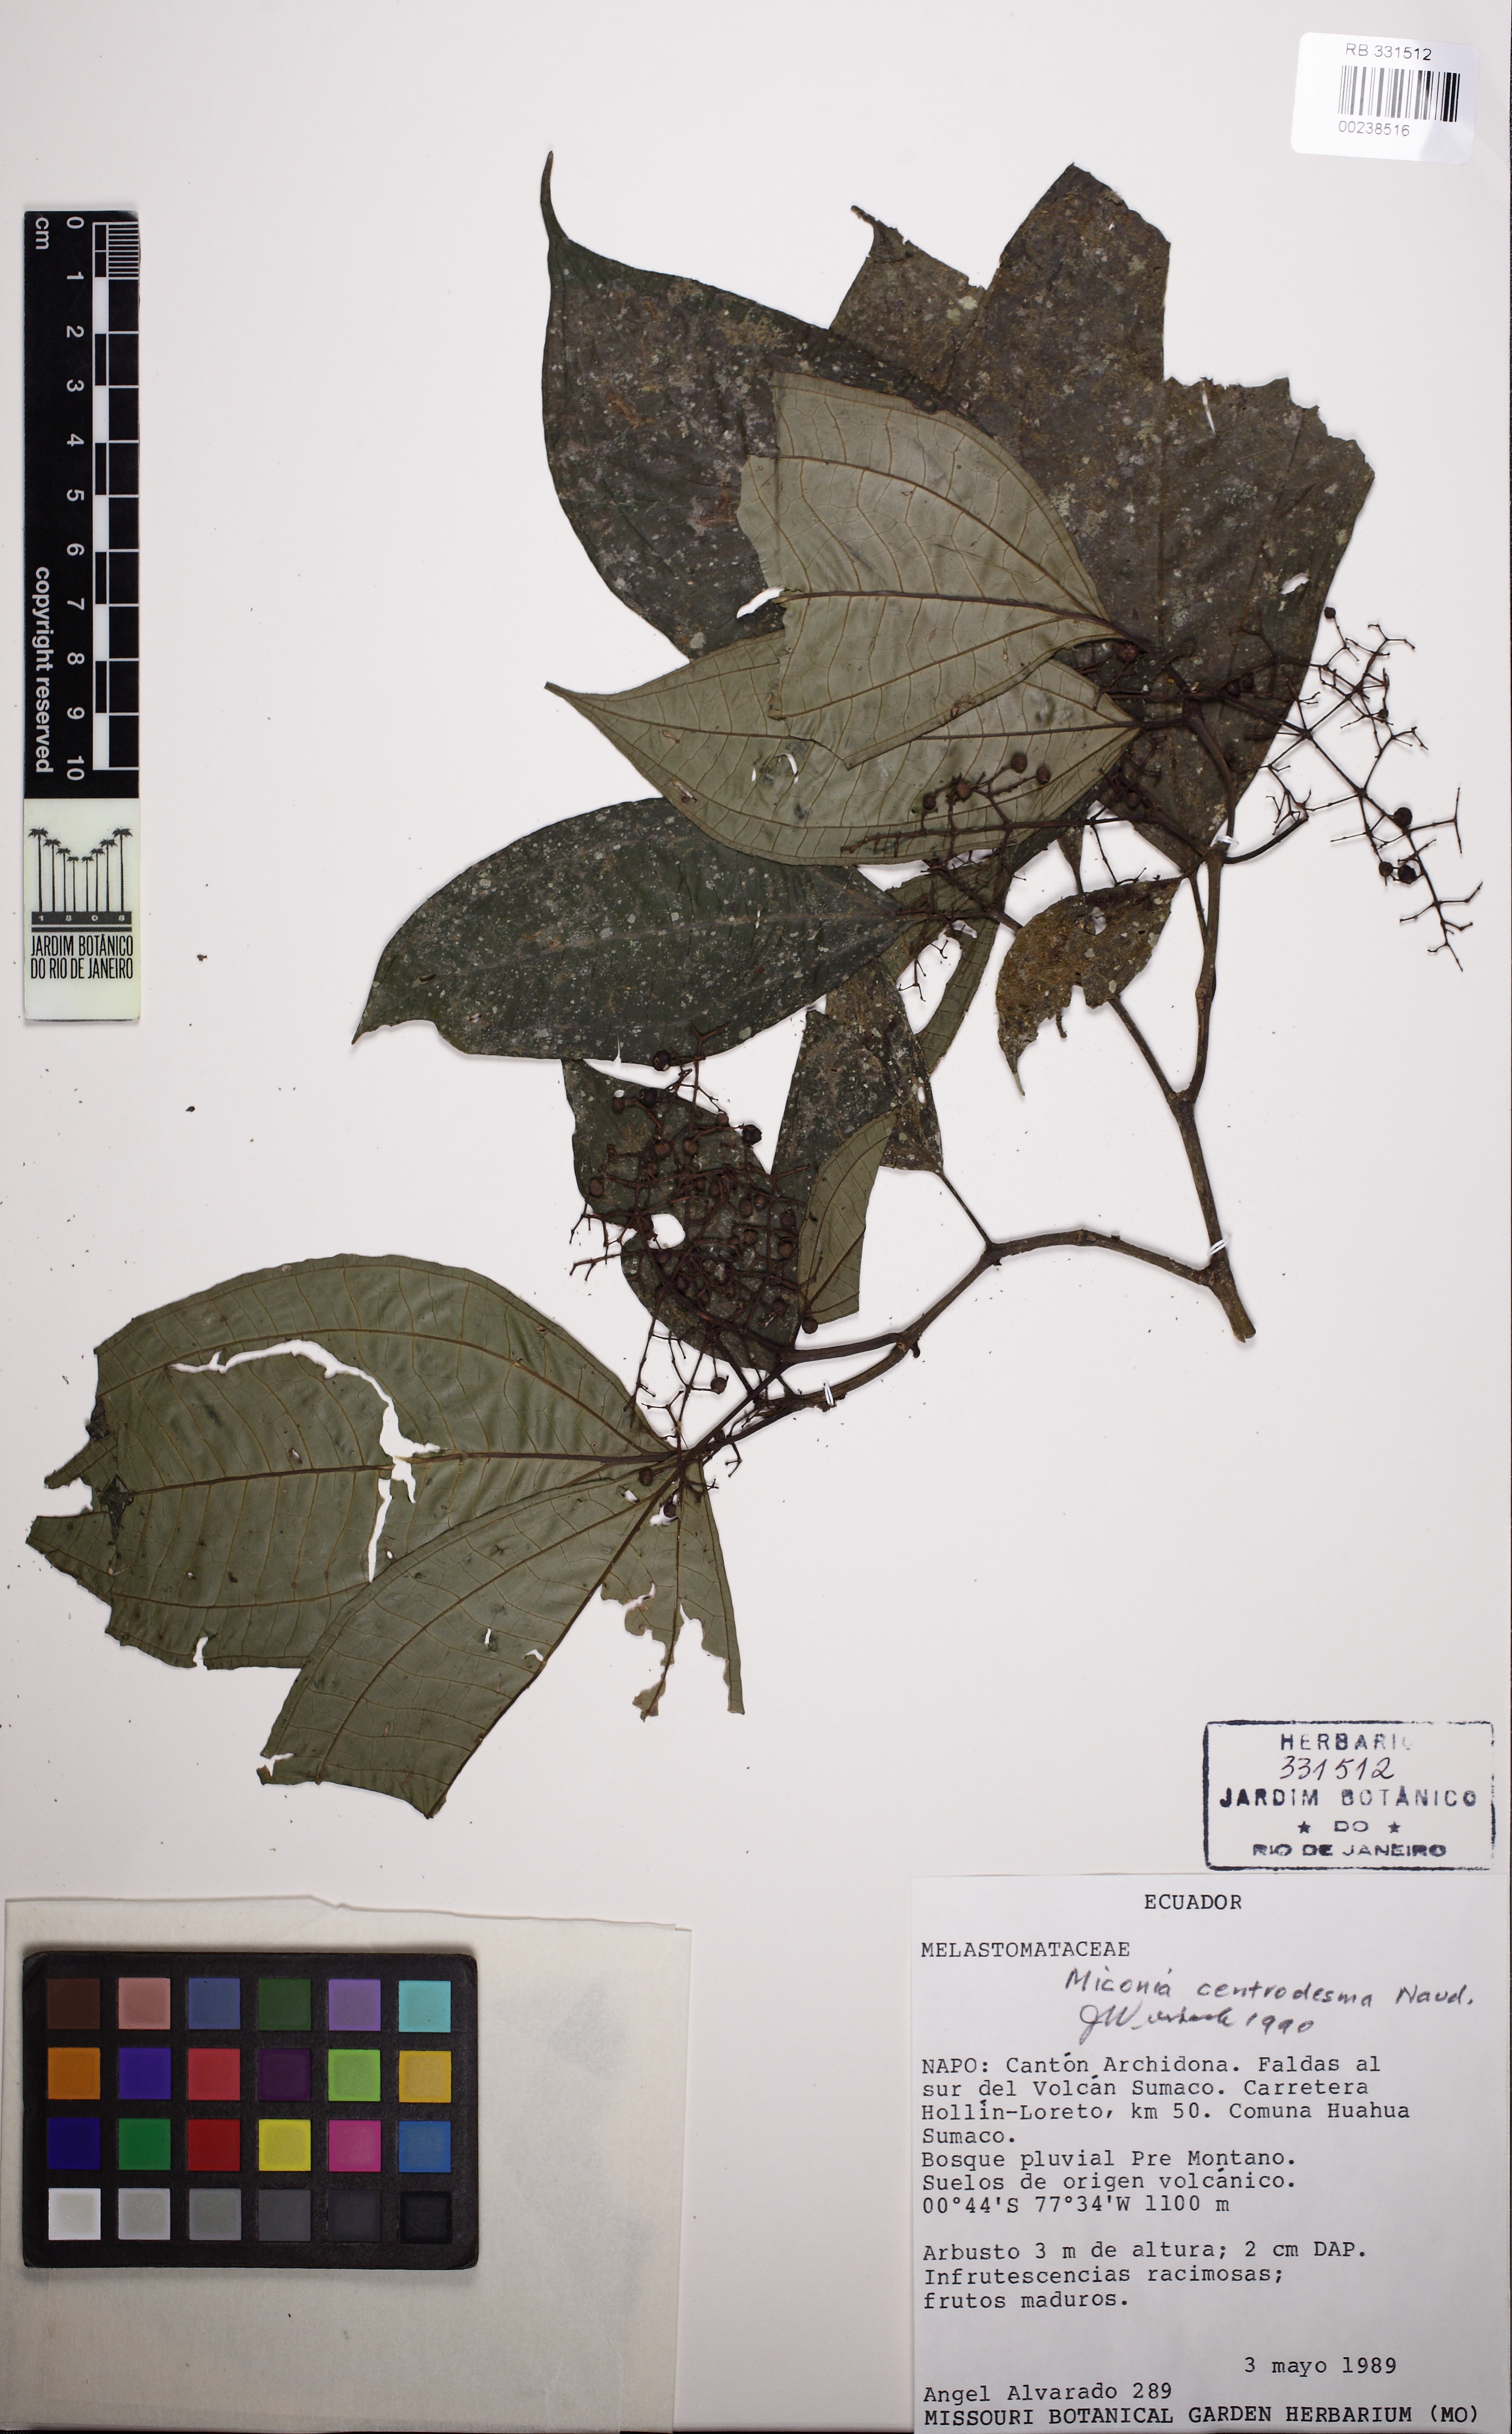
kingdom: Plantae
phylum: Tracheophyta
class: Magnoliopsida
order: Myrtales
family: Melastomataceae
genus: Miconia
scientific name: Miconia centrodesma
